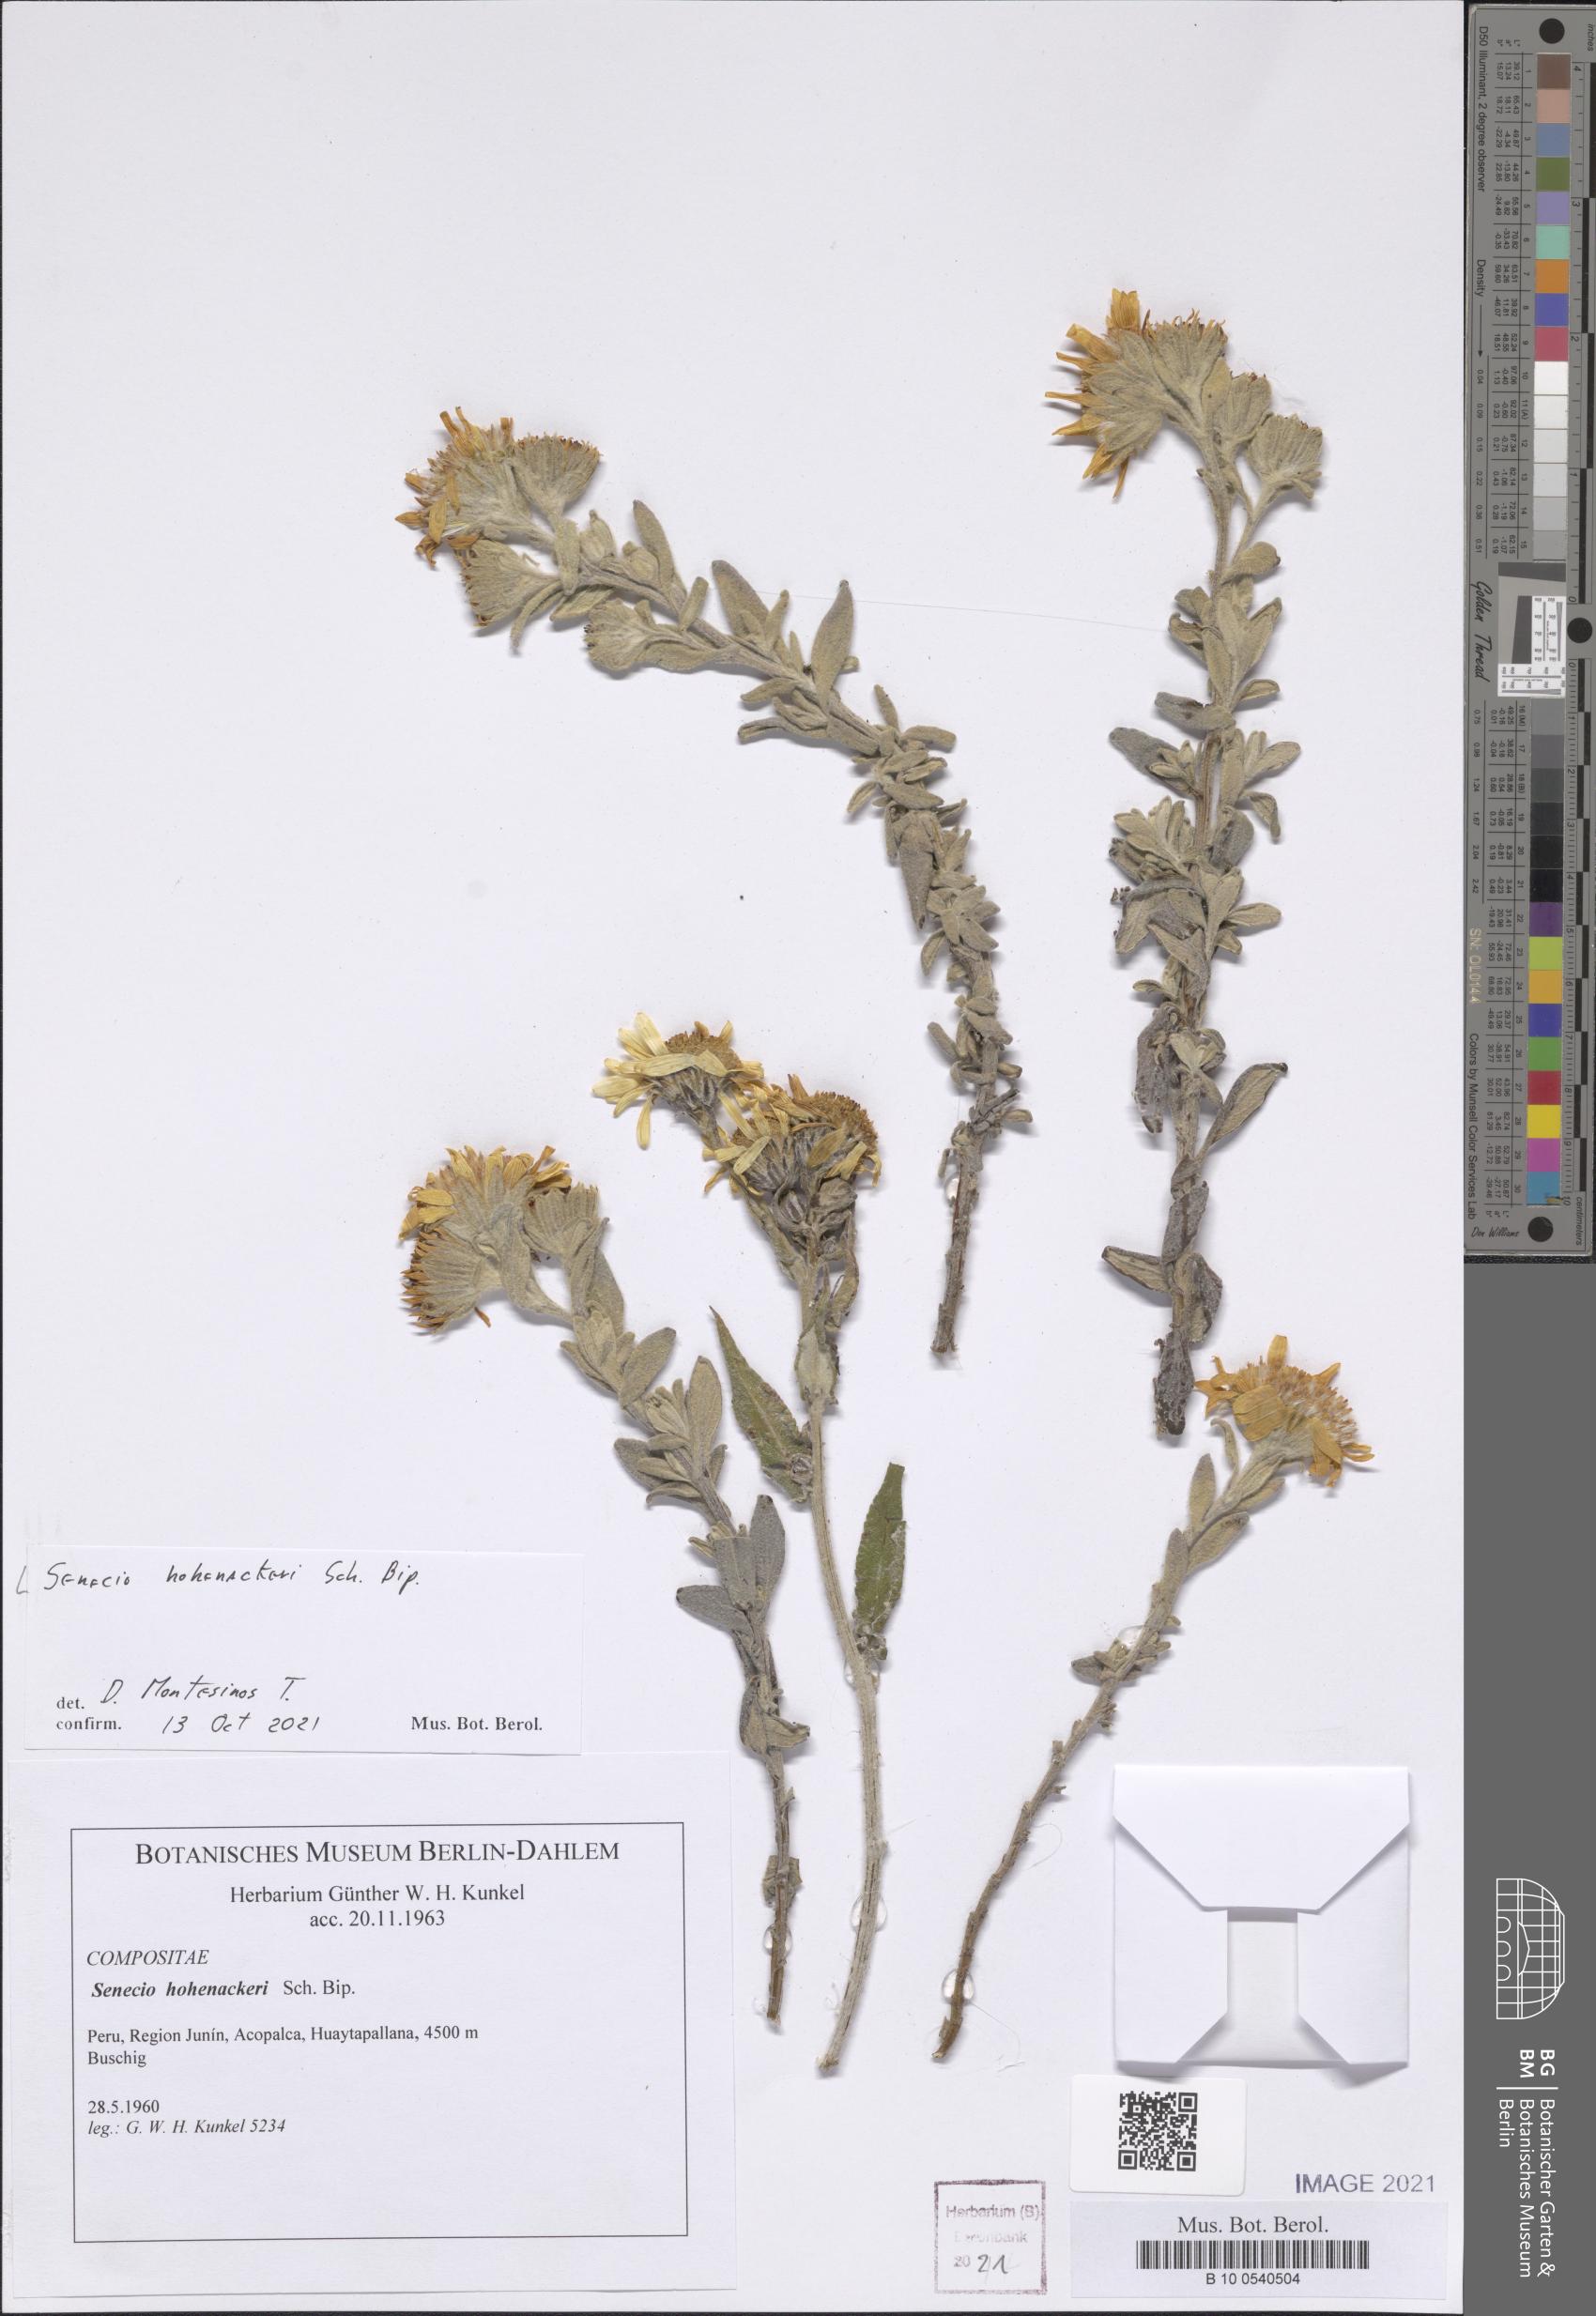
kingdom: Plantae
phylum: Tracheophyta
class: Magnoliopsida
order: Asterales
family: Asteraceae
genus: Senecio
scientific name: Senecio hohenackeri
